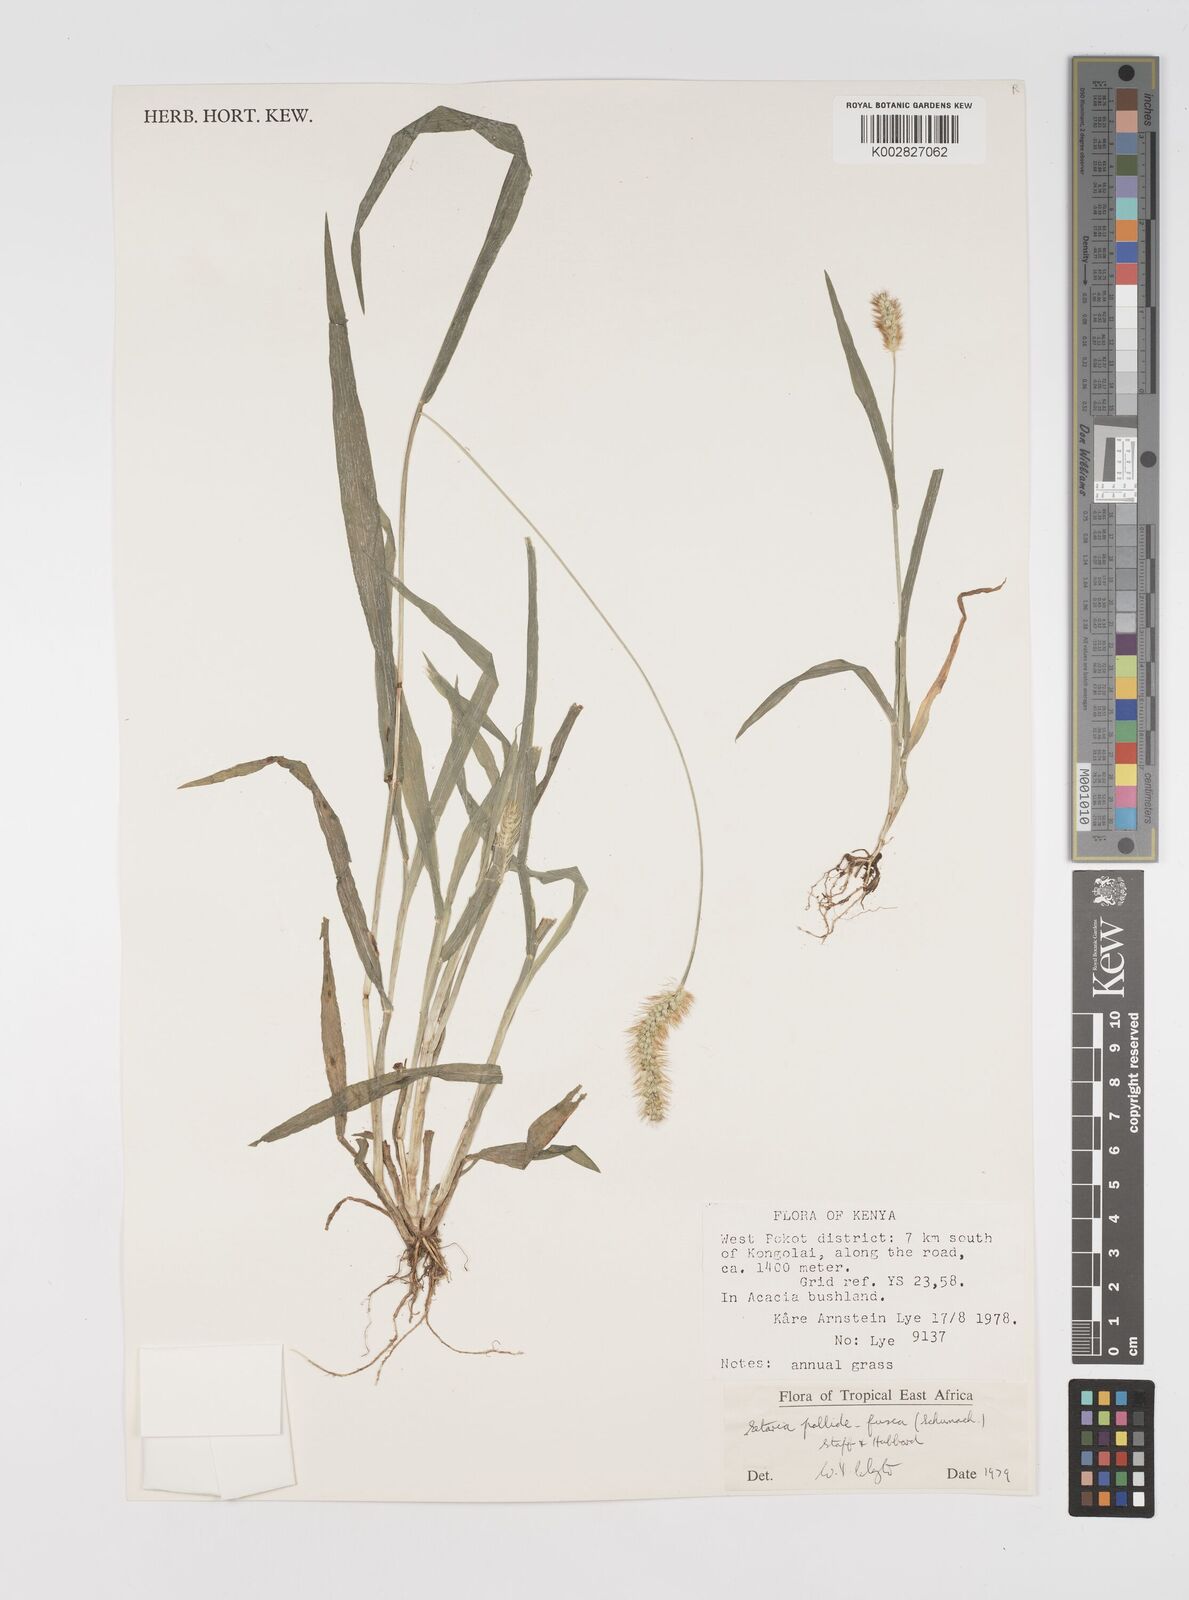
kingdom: Plantae
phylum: Tracheophyta
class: Liliopsida
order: Poales
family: Poaceae
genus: Setaria
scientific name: Setaria pumila
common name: Yellow bristle-grass
